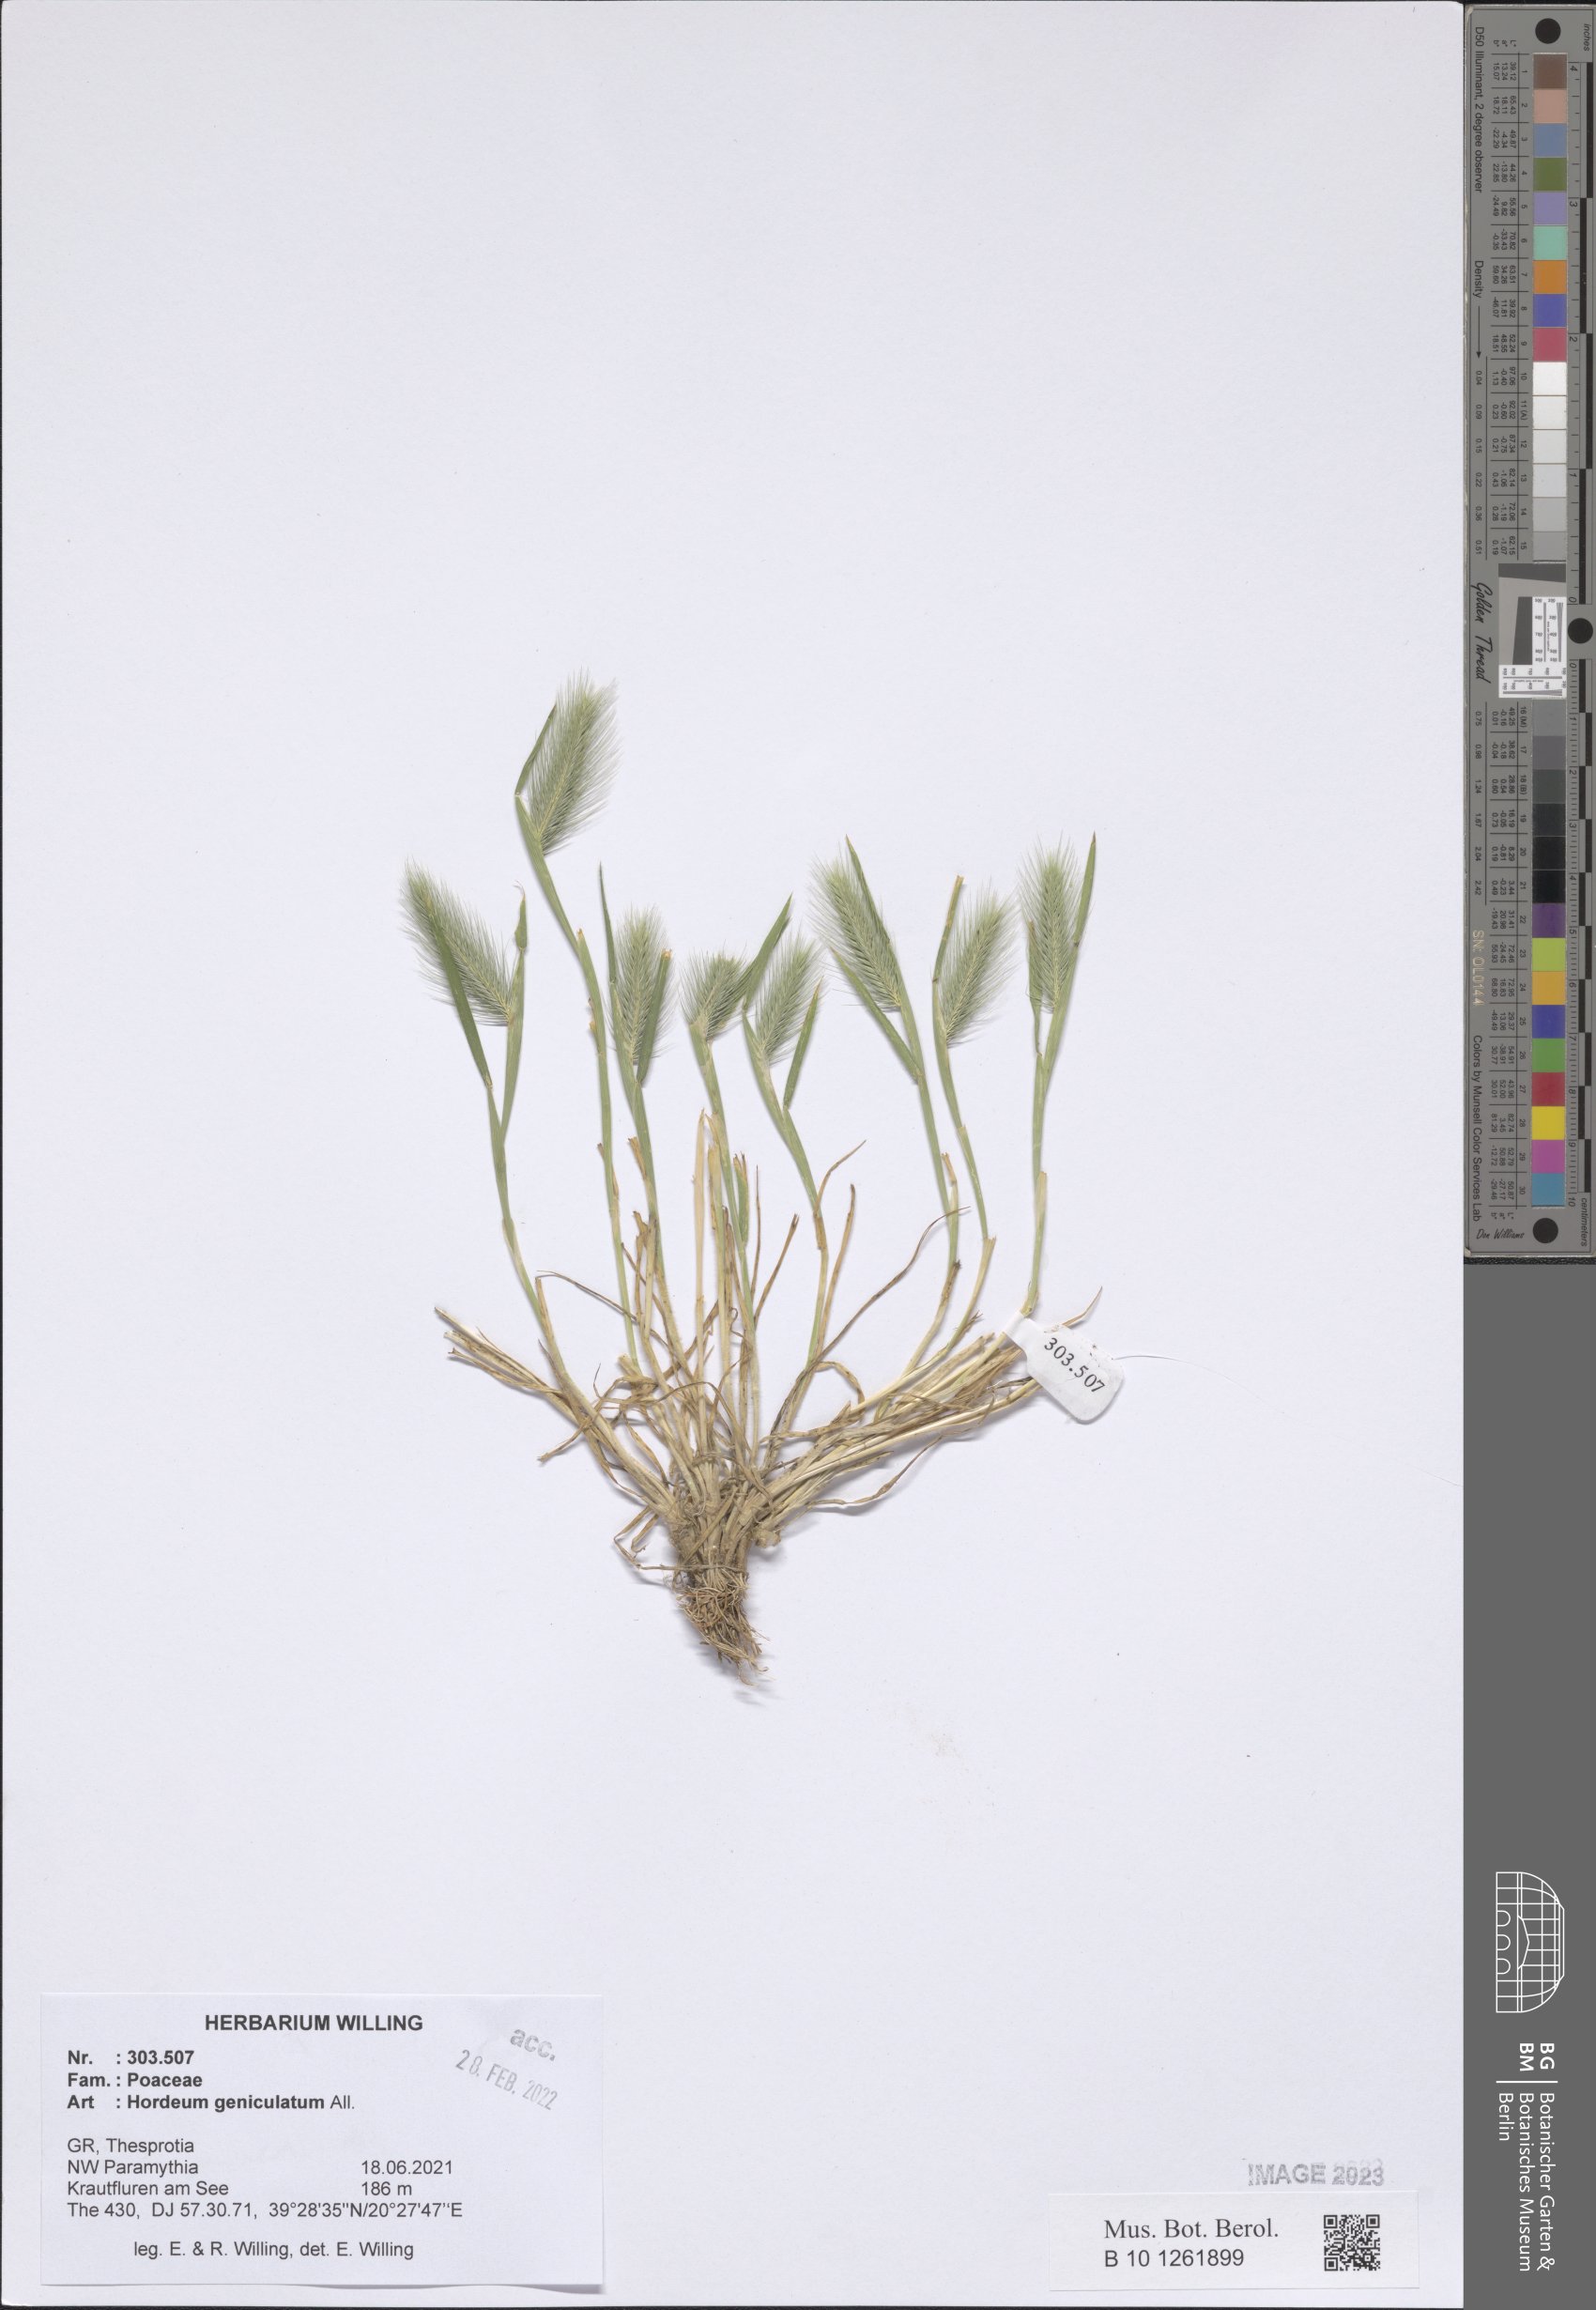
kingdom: Plantae
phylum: Tracheophyta
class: Liliopsida
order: Poales
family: Poaceae
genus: Hordeum
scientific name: Hordeum marinum
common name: Sea barley
